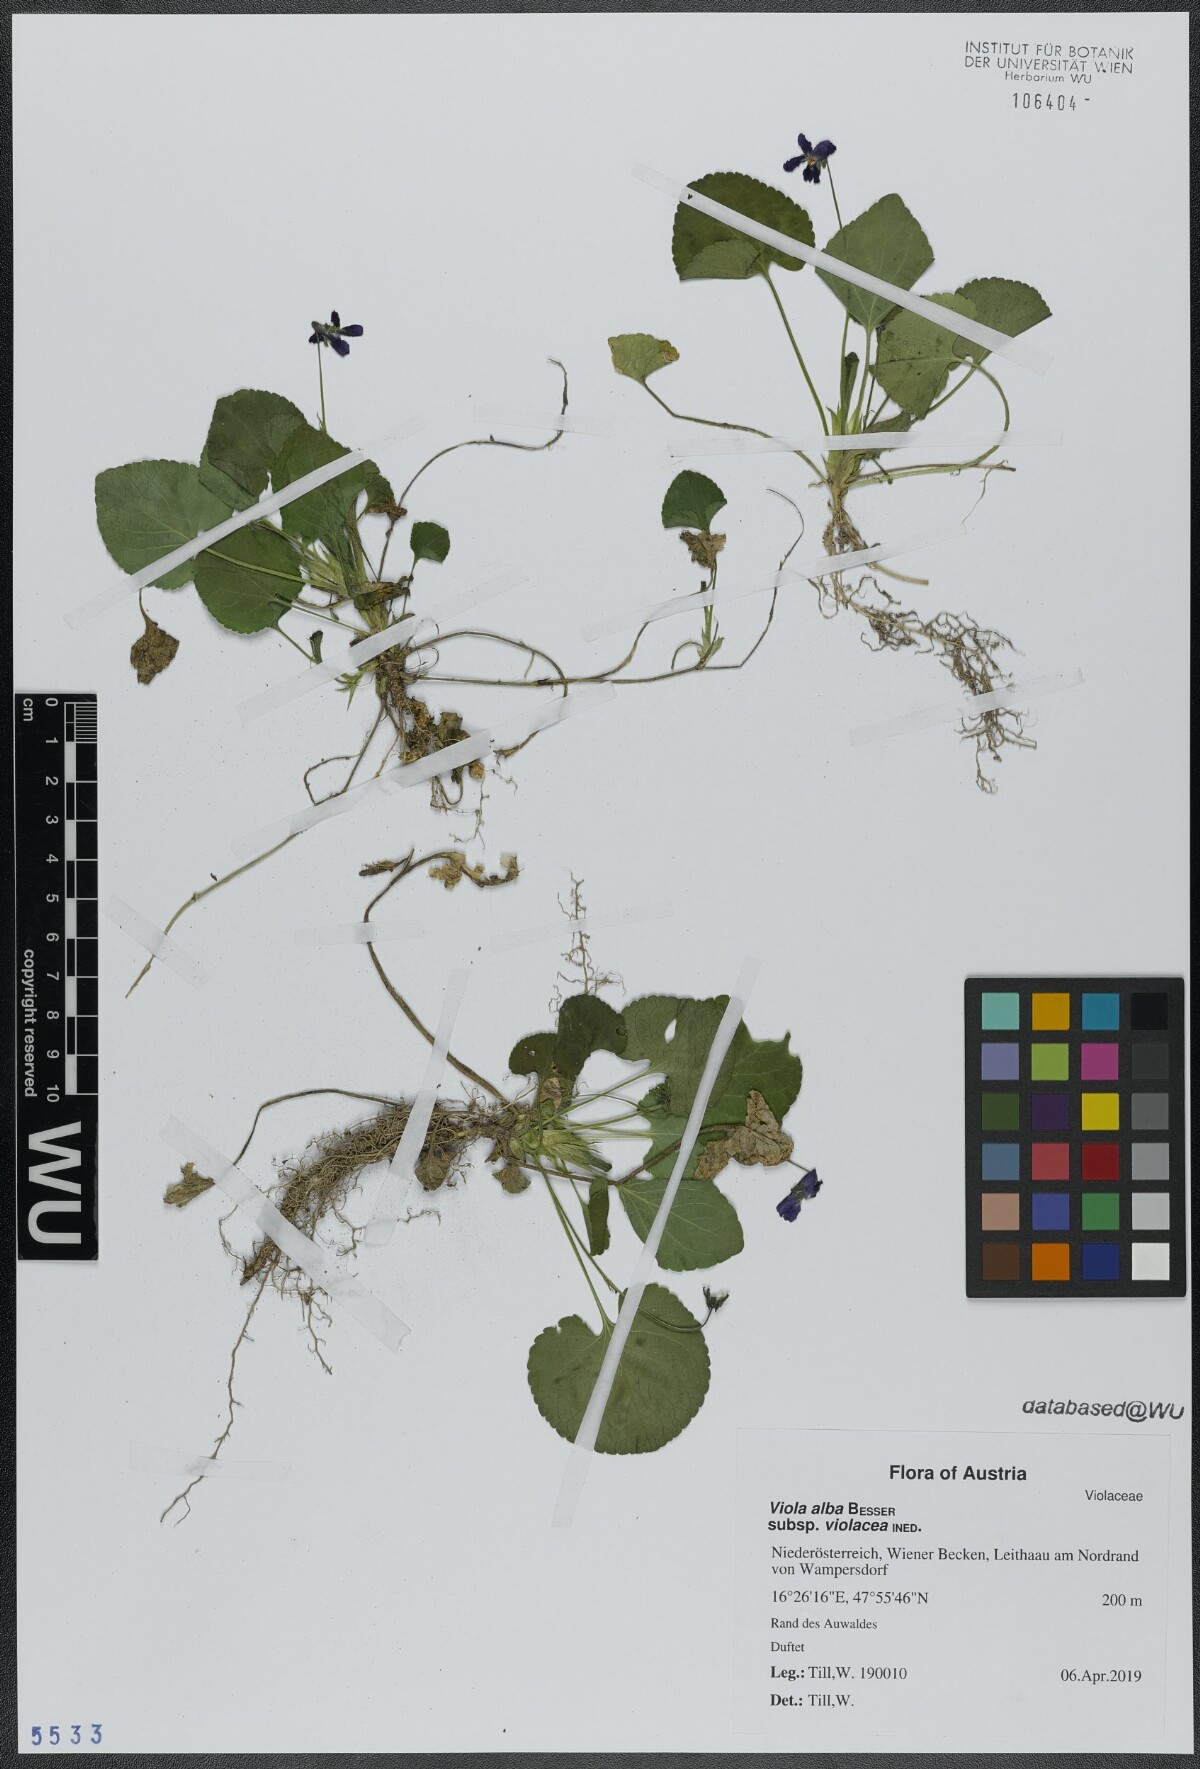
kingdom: Plantae
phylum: Tracheophyta
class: Magnoliopsida
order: Malpighiales
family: Violaceae
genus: Viola
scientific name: Viola alba
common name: White violet
